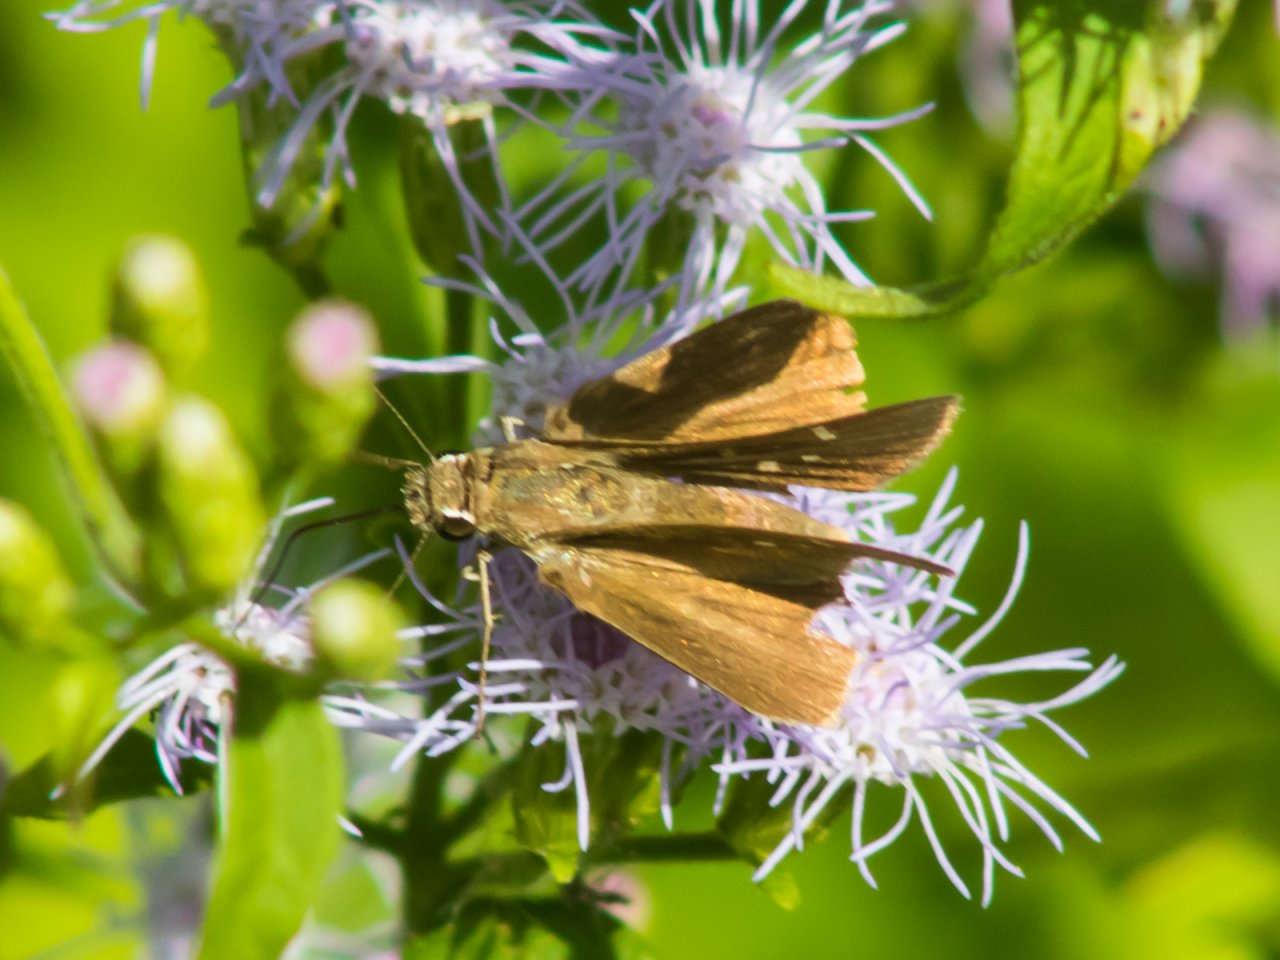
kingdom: Animalia
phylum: Arthropoda
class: Insecta
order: Lepidoptera
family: Hesperiidae
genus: Lerodea
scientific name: Lerodea eufala
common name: Eufala Skipper
